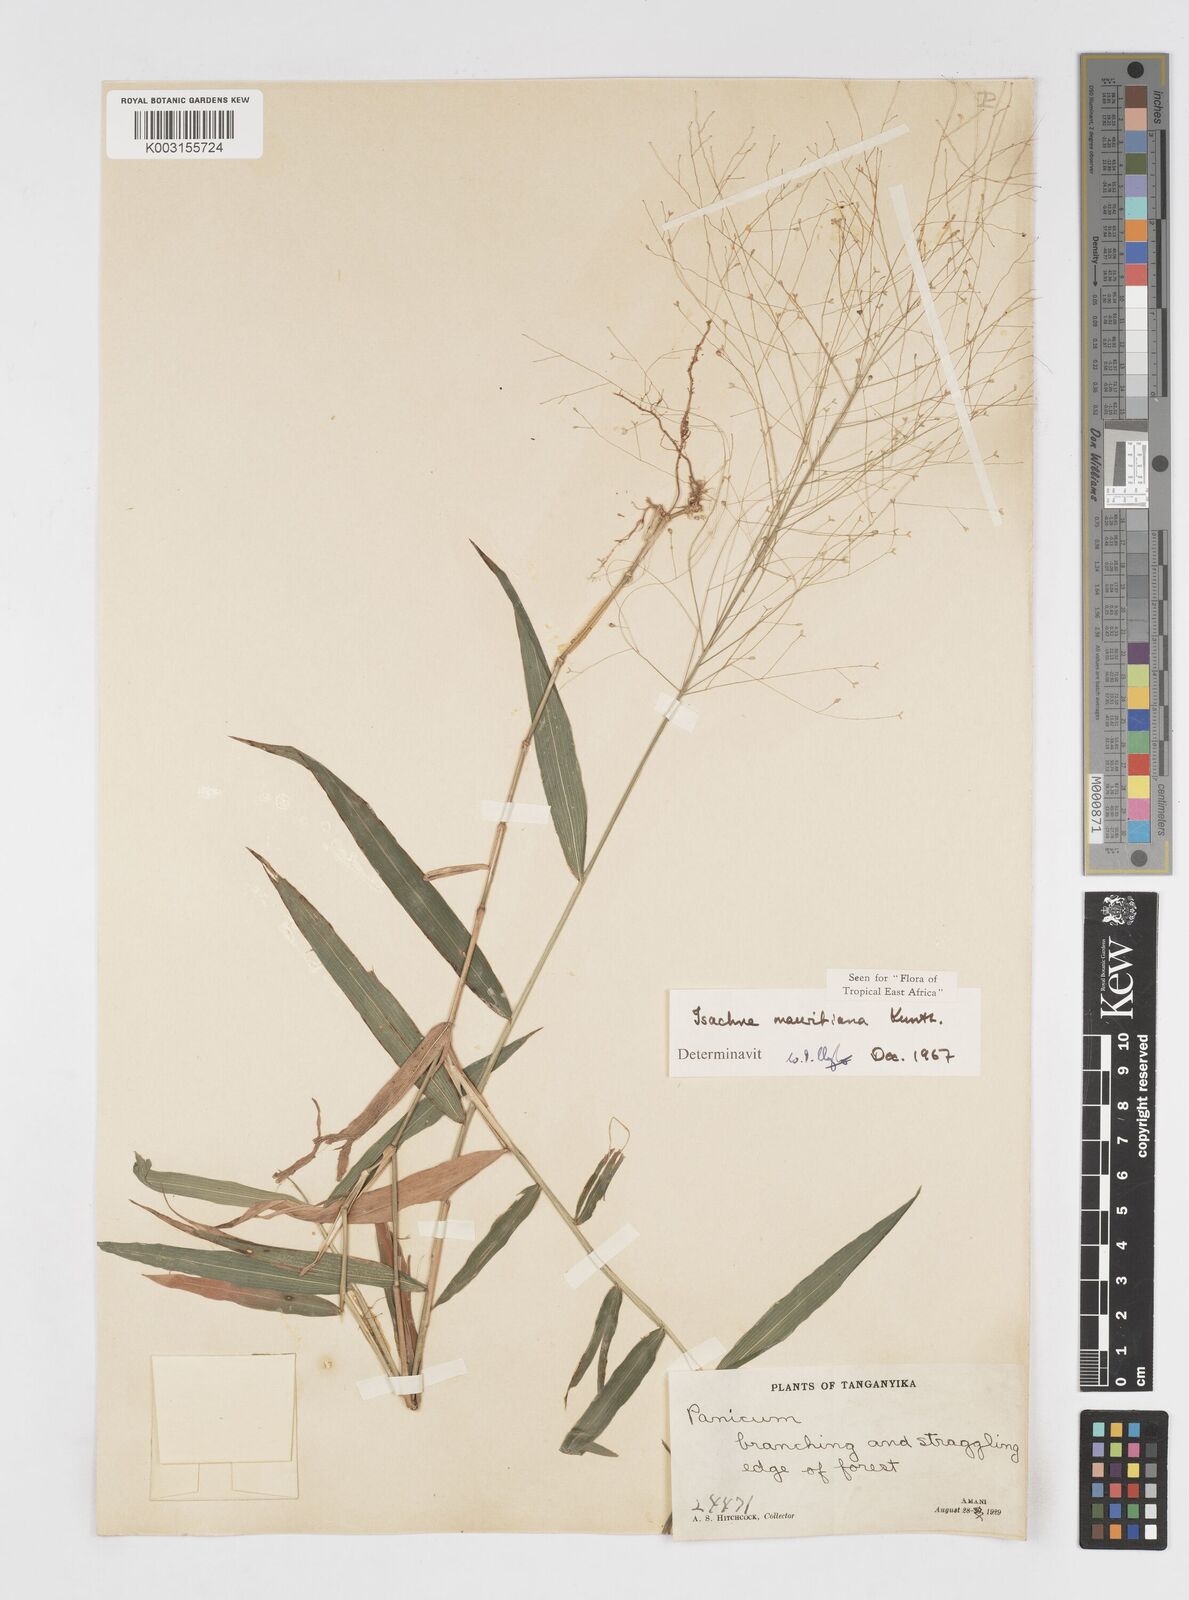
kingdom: Plantae
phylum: Tracheophyta
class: Liliopsida
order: Poales
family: Poaceae
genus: Isachne
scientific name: Isachne mauritiana
